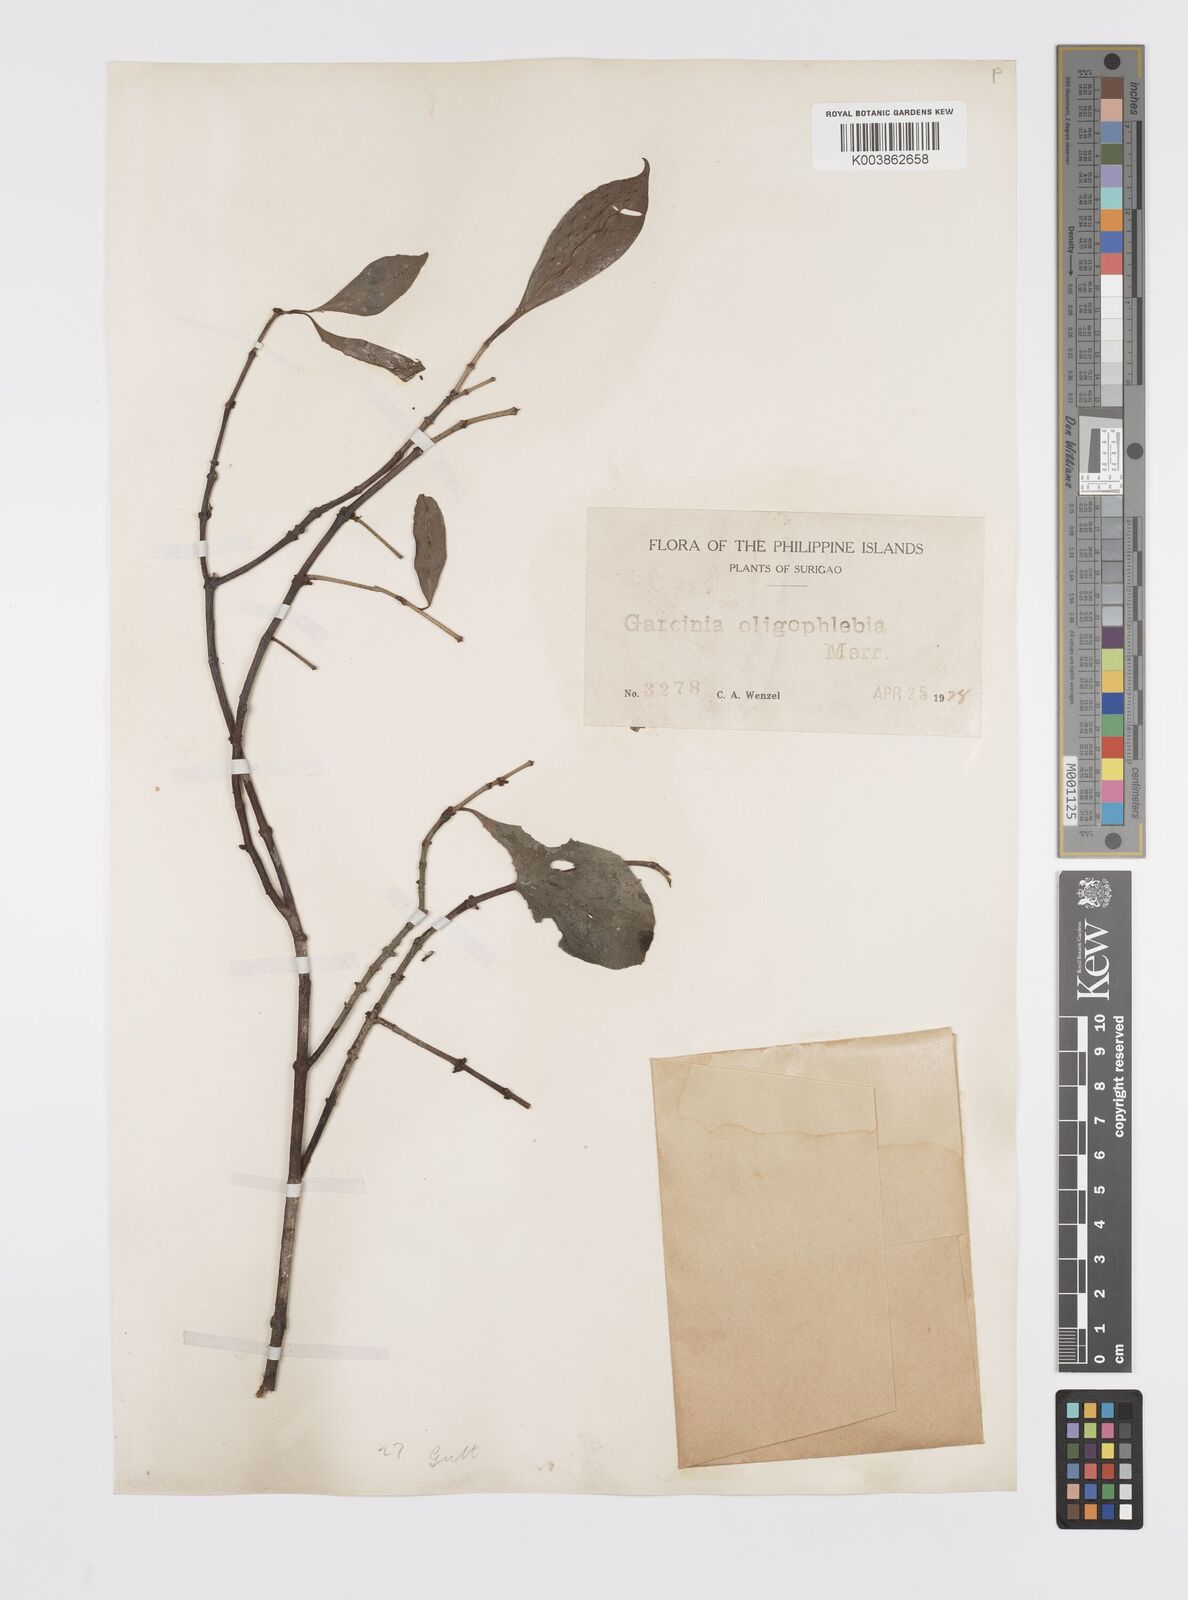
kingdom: Plantae
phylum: Tracheophyta
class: Magnoliopsida
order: Malpighiales
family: Clusiaceae
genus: Garcinia
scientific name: Garcinia rubra
